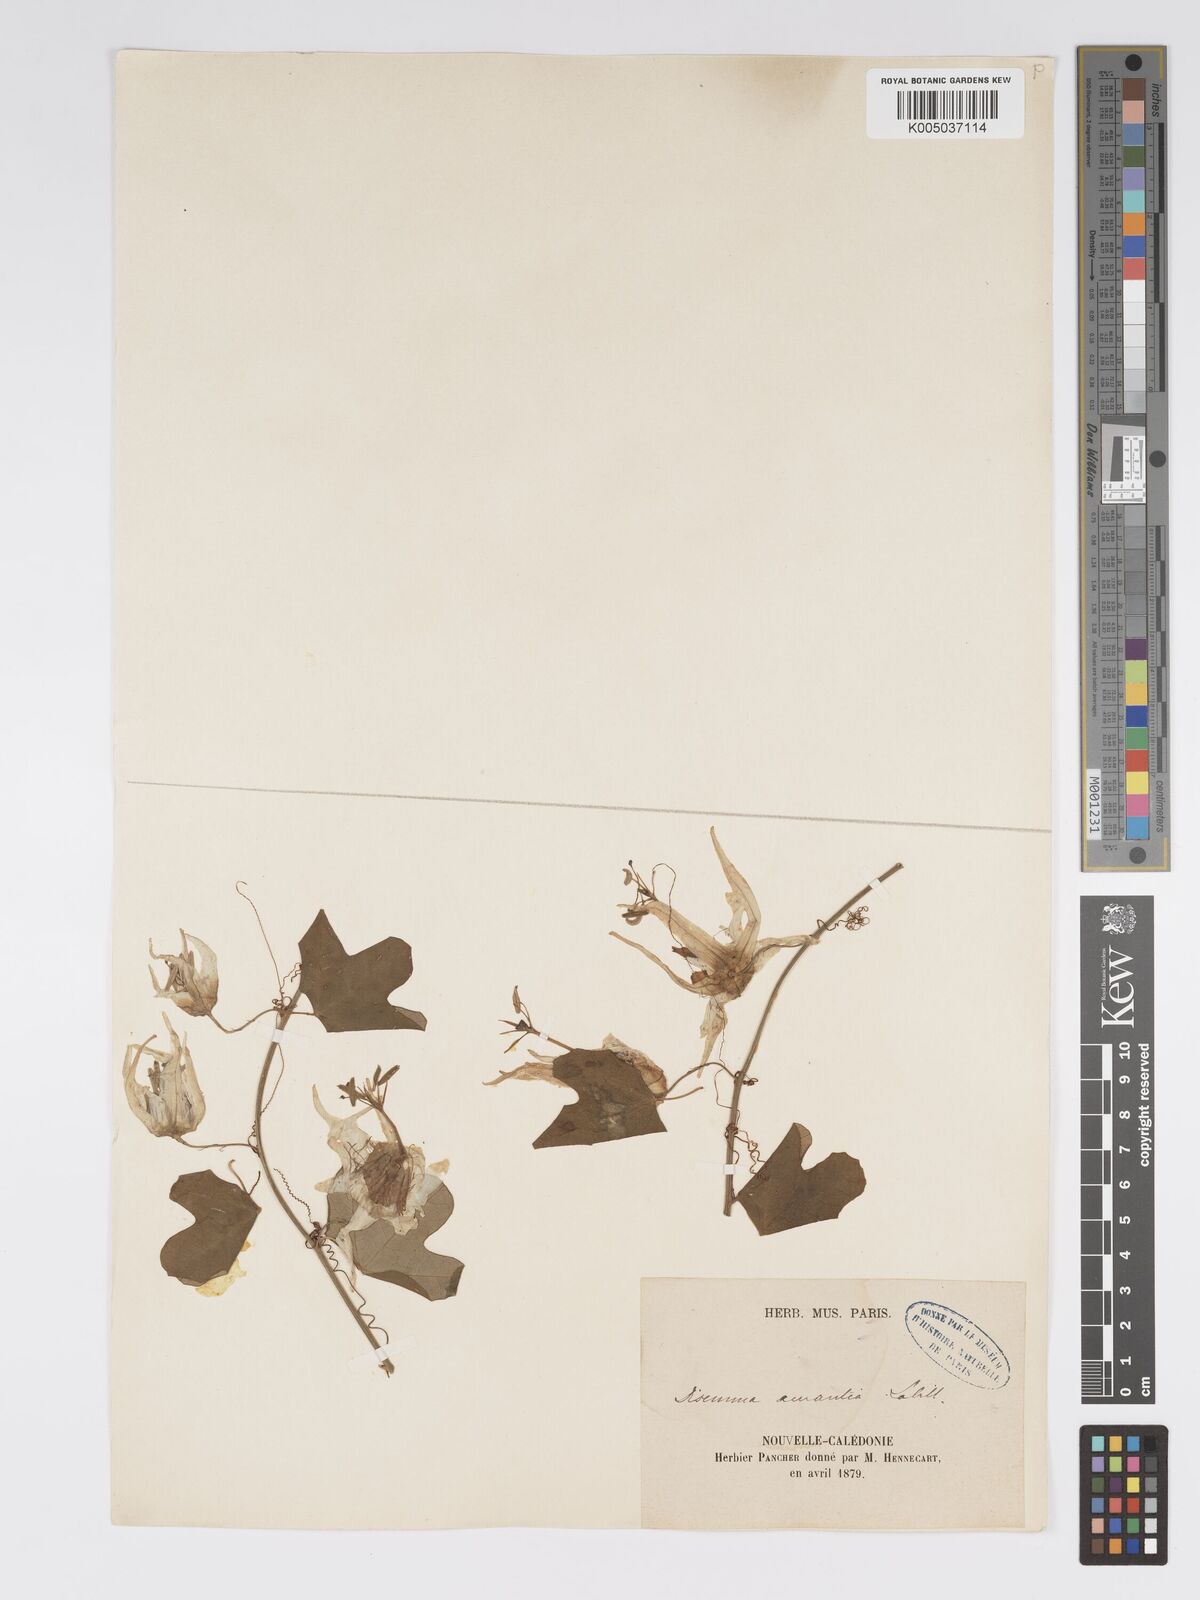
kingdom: Plantae
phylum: Tracheophyta
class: Magnoliopsida
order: Malpighiales
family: Passifloraceae
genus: Passiflora
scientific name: Passiflora aurantia
